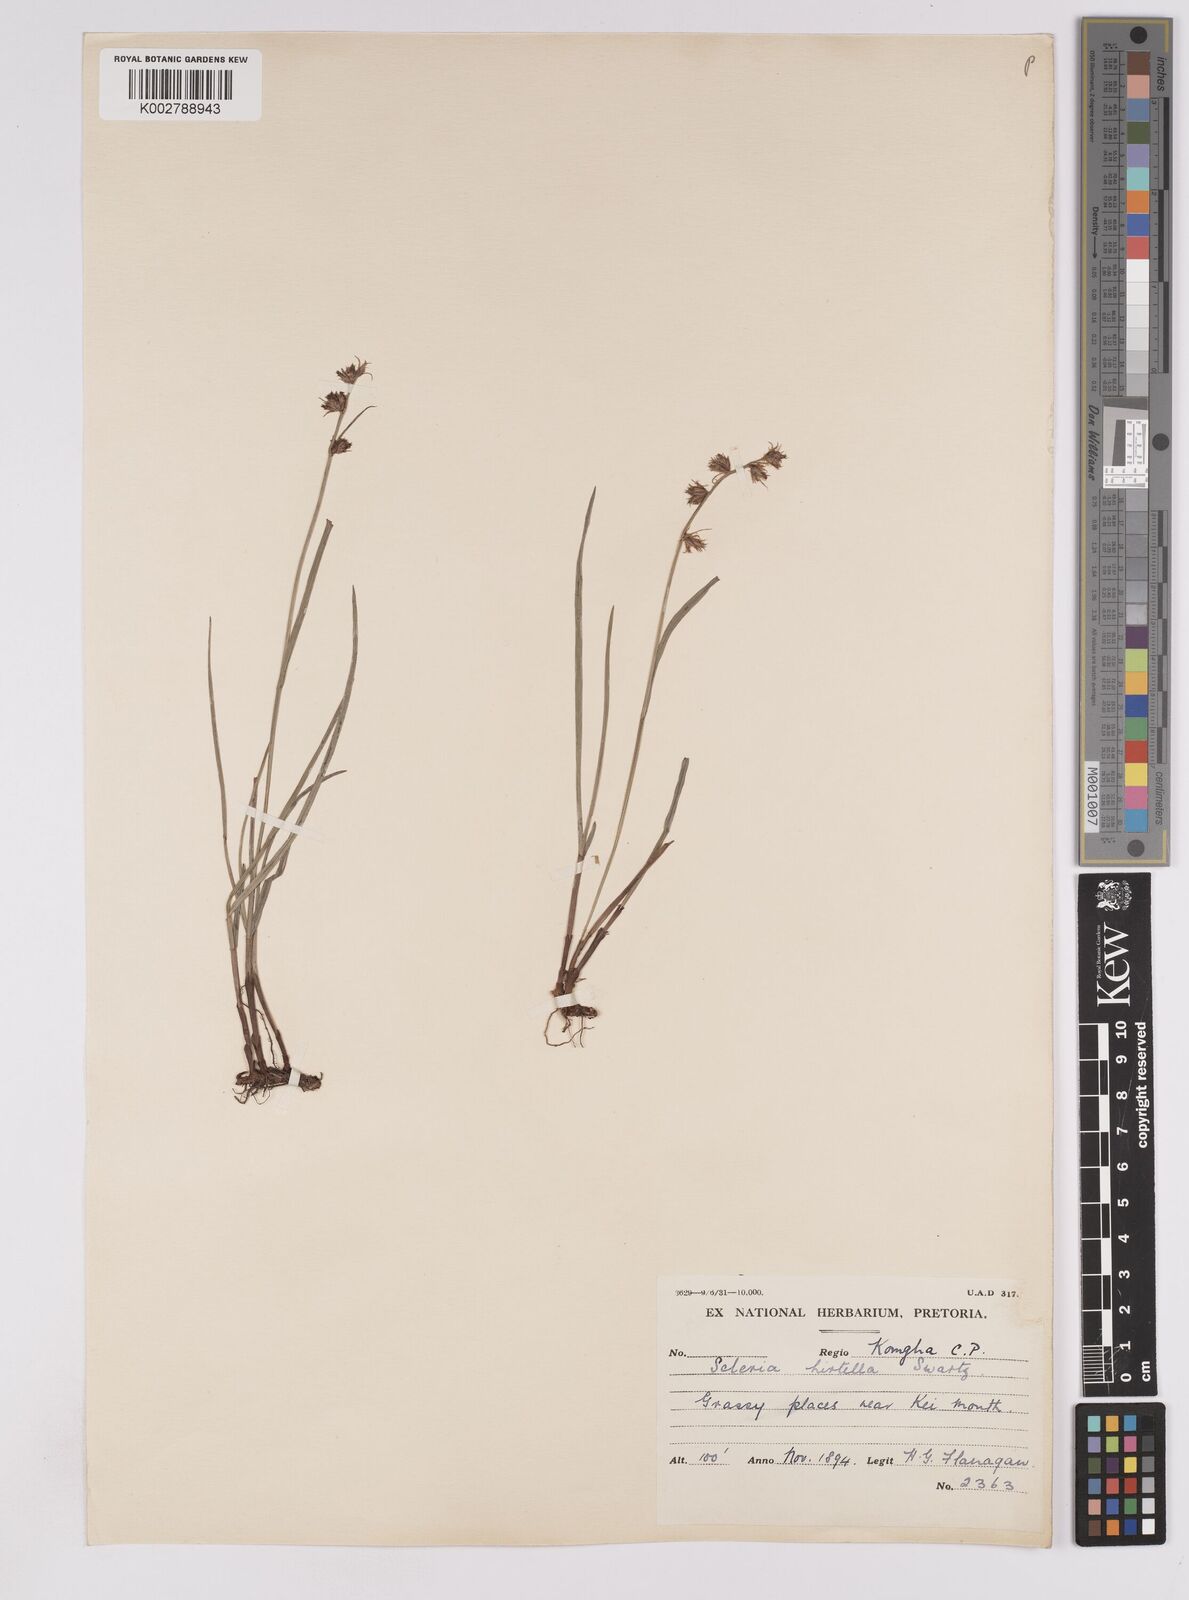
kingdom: Plantae
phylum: Tracheophyta
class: Liliopsida
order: Poales
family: Cyperaceae
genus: Scleria
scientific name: Scleria hirtella
